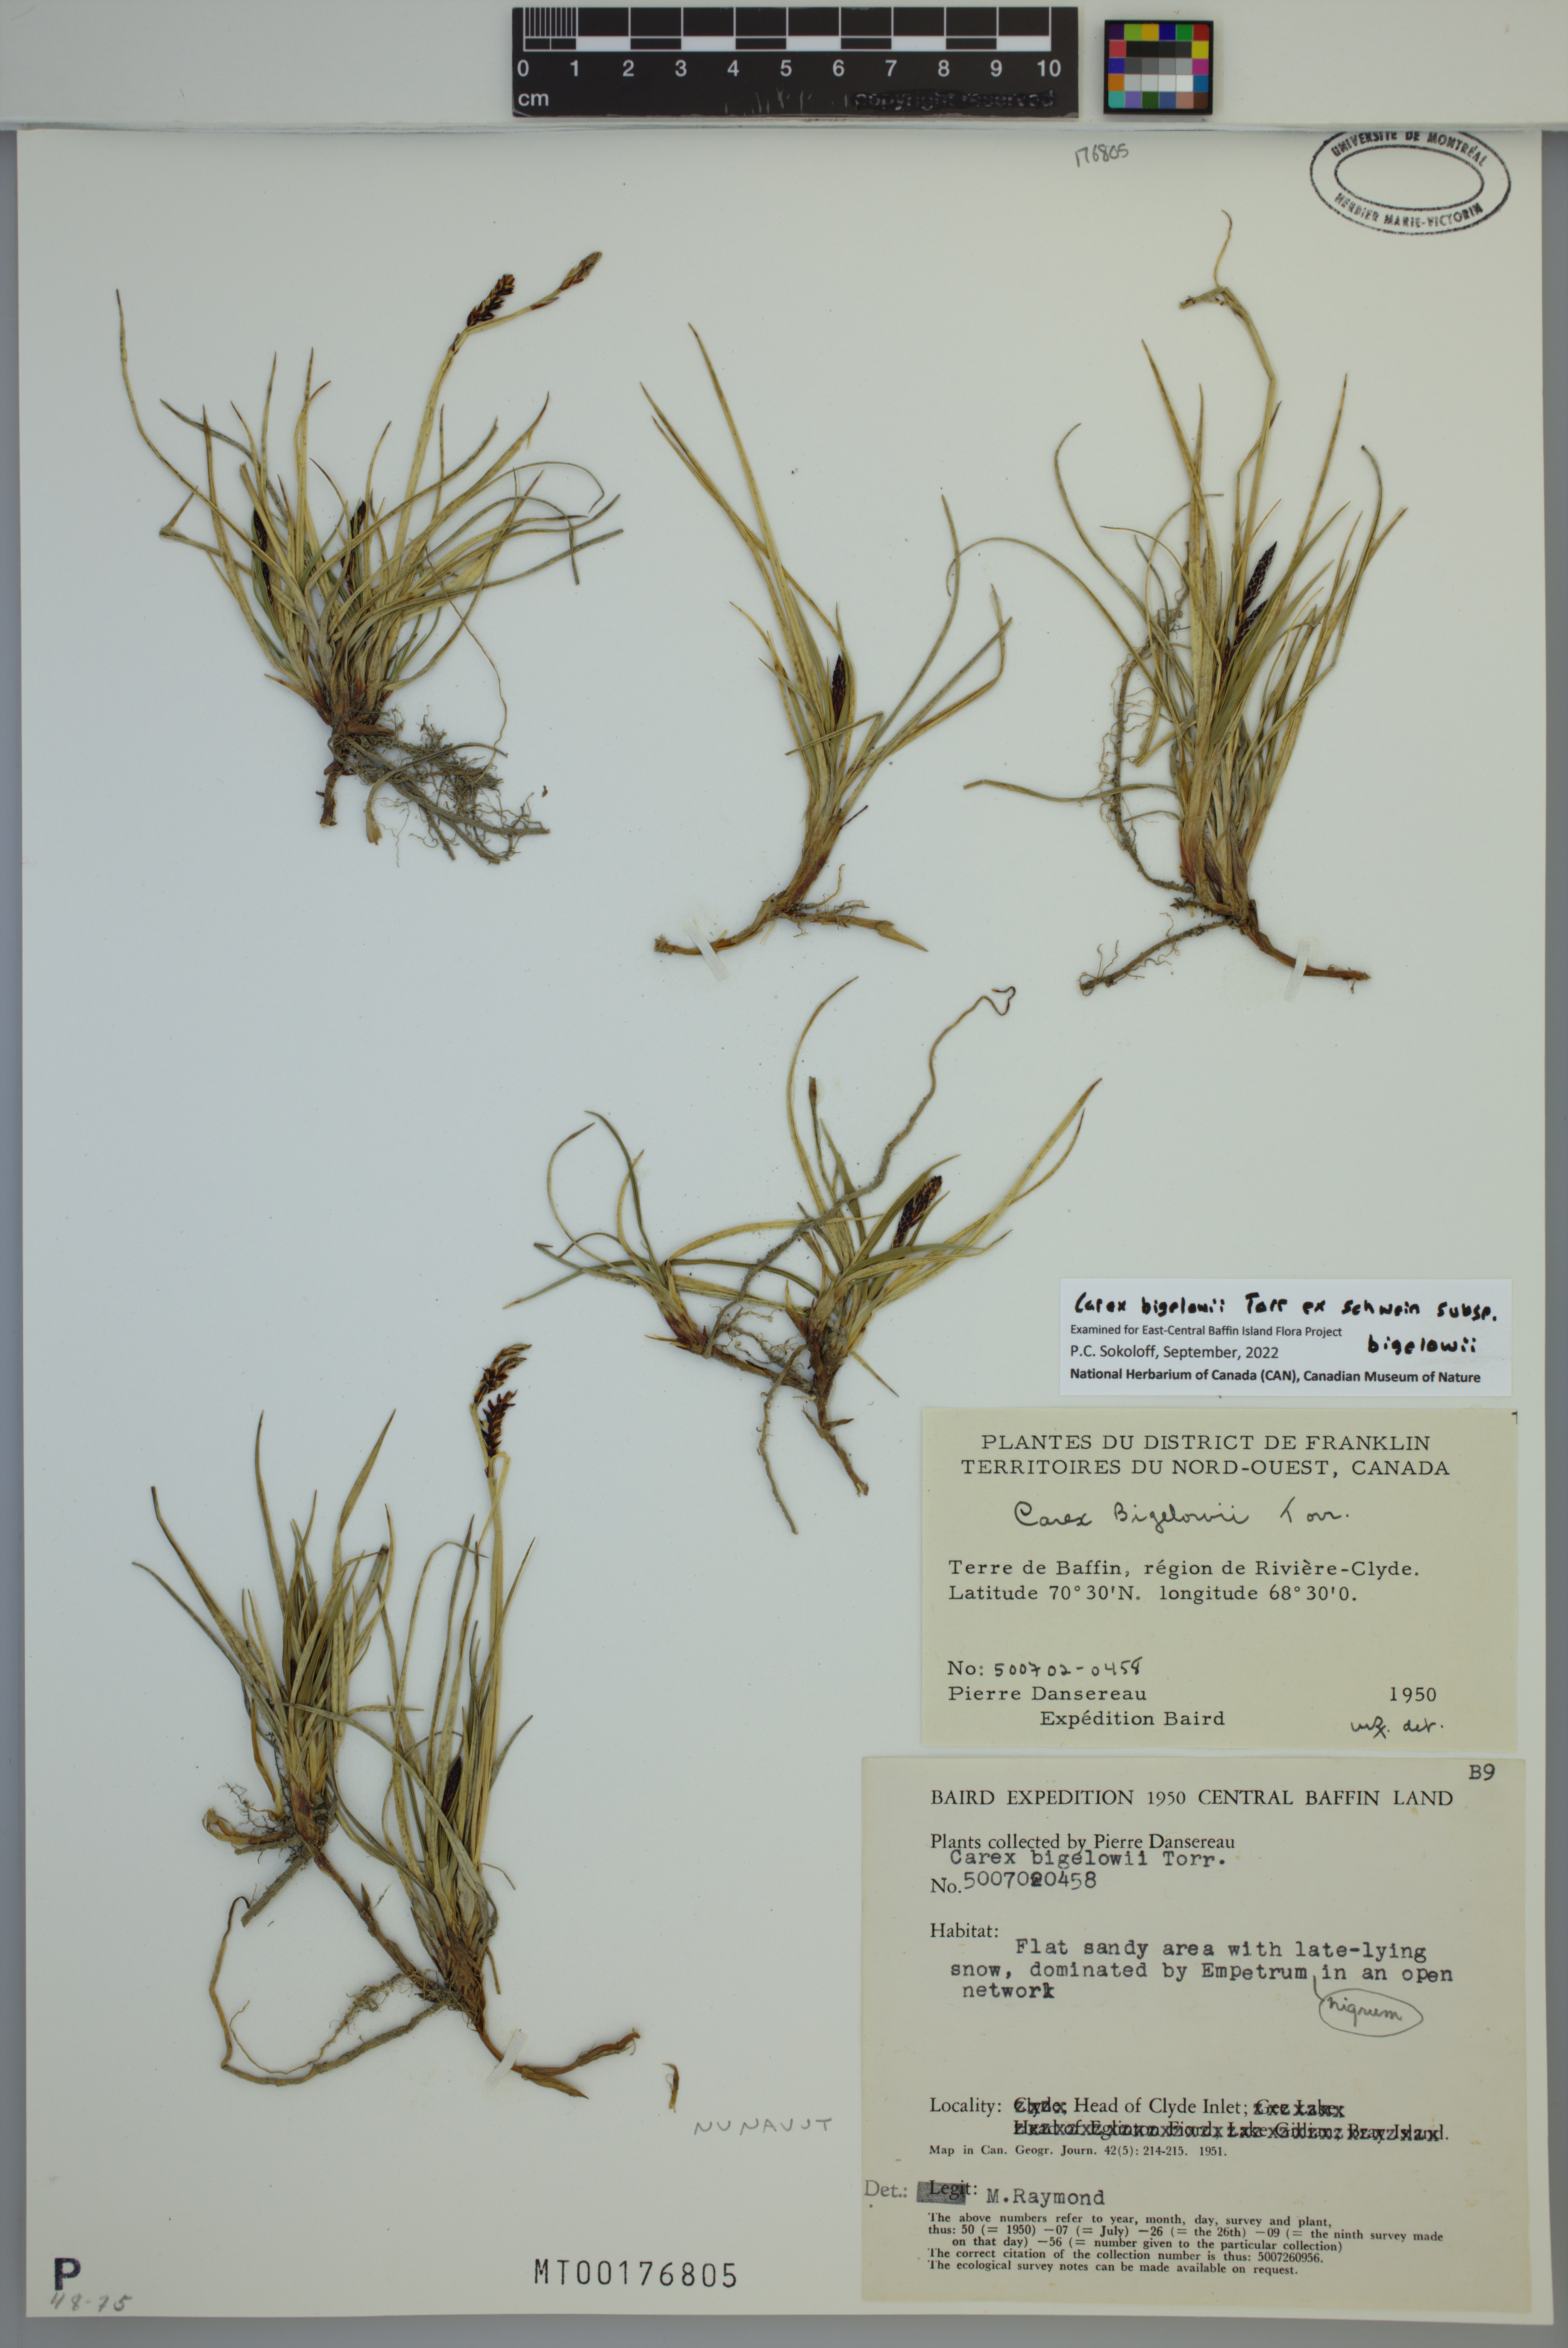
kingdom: Plantae
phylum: Tracheophyta
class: Liliopsida
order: Poales
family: Cyperaceae
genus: Carex
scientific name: Carex bigelowii
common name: Stiff sedge
